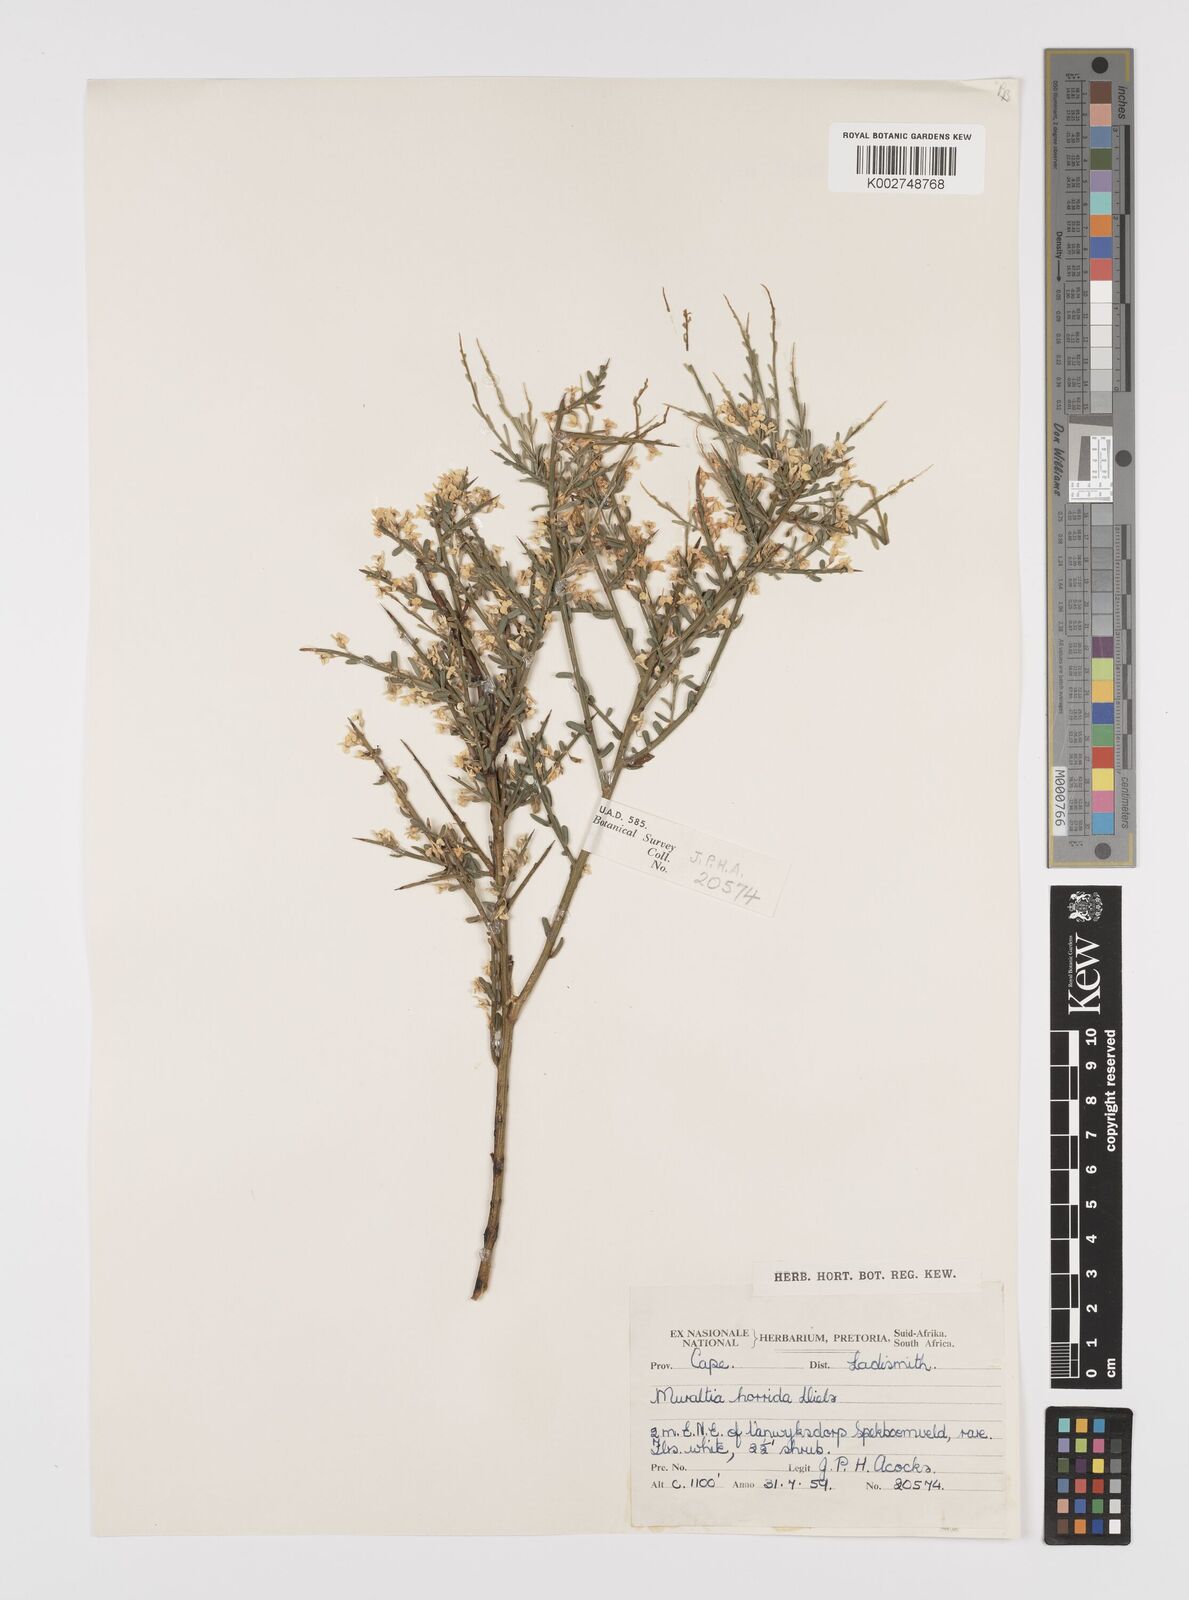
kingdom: Plantae
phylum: Tracheophyta
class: Magnoliopsida
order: Fabales
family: Polygalaceae
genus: Muraltia
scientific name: Muraltia horrida
